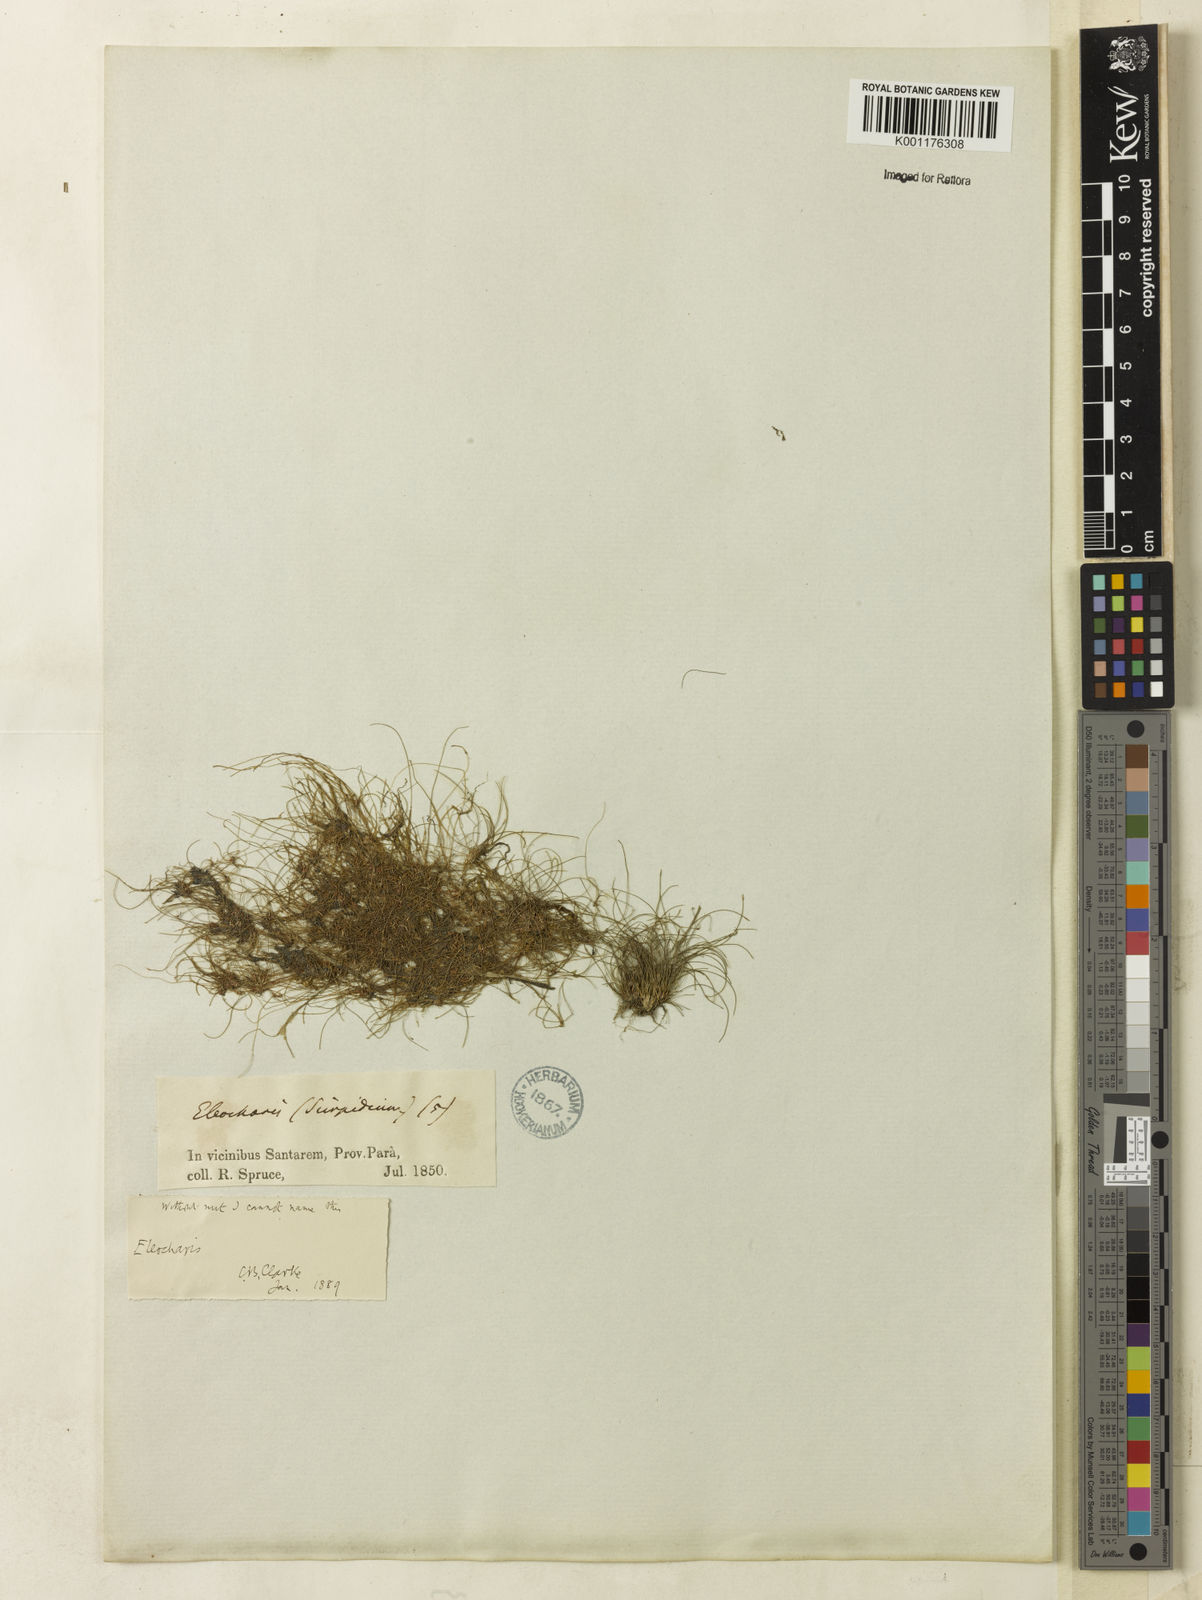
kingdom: Plantae
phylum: Tracheophyta
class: Liliopsida
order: Poales
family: Cyperaceae
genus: Eleocharis
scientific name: Eleocharis
